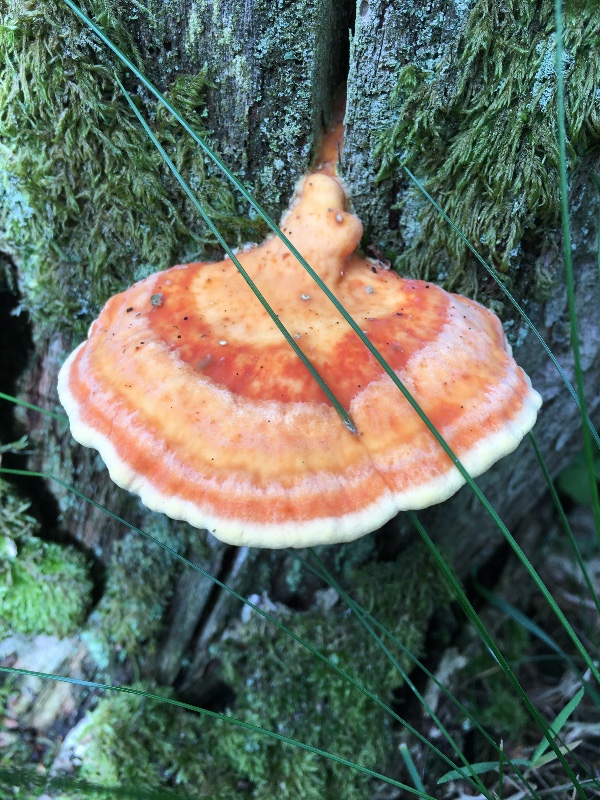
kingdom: Fungi
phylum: Basidiomycota
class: Agaricomycetes
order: Polyporales
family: Laetiporaceae
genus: Laetiporus
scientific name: Laetiporus sulphureus
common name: svovlporesvamp
